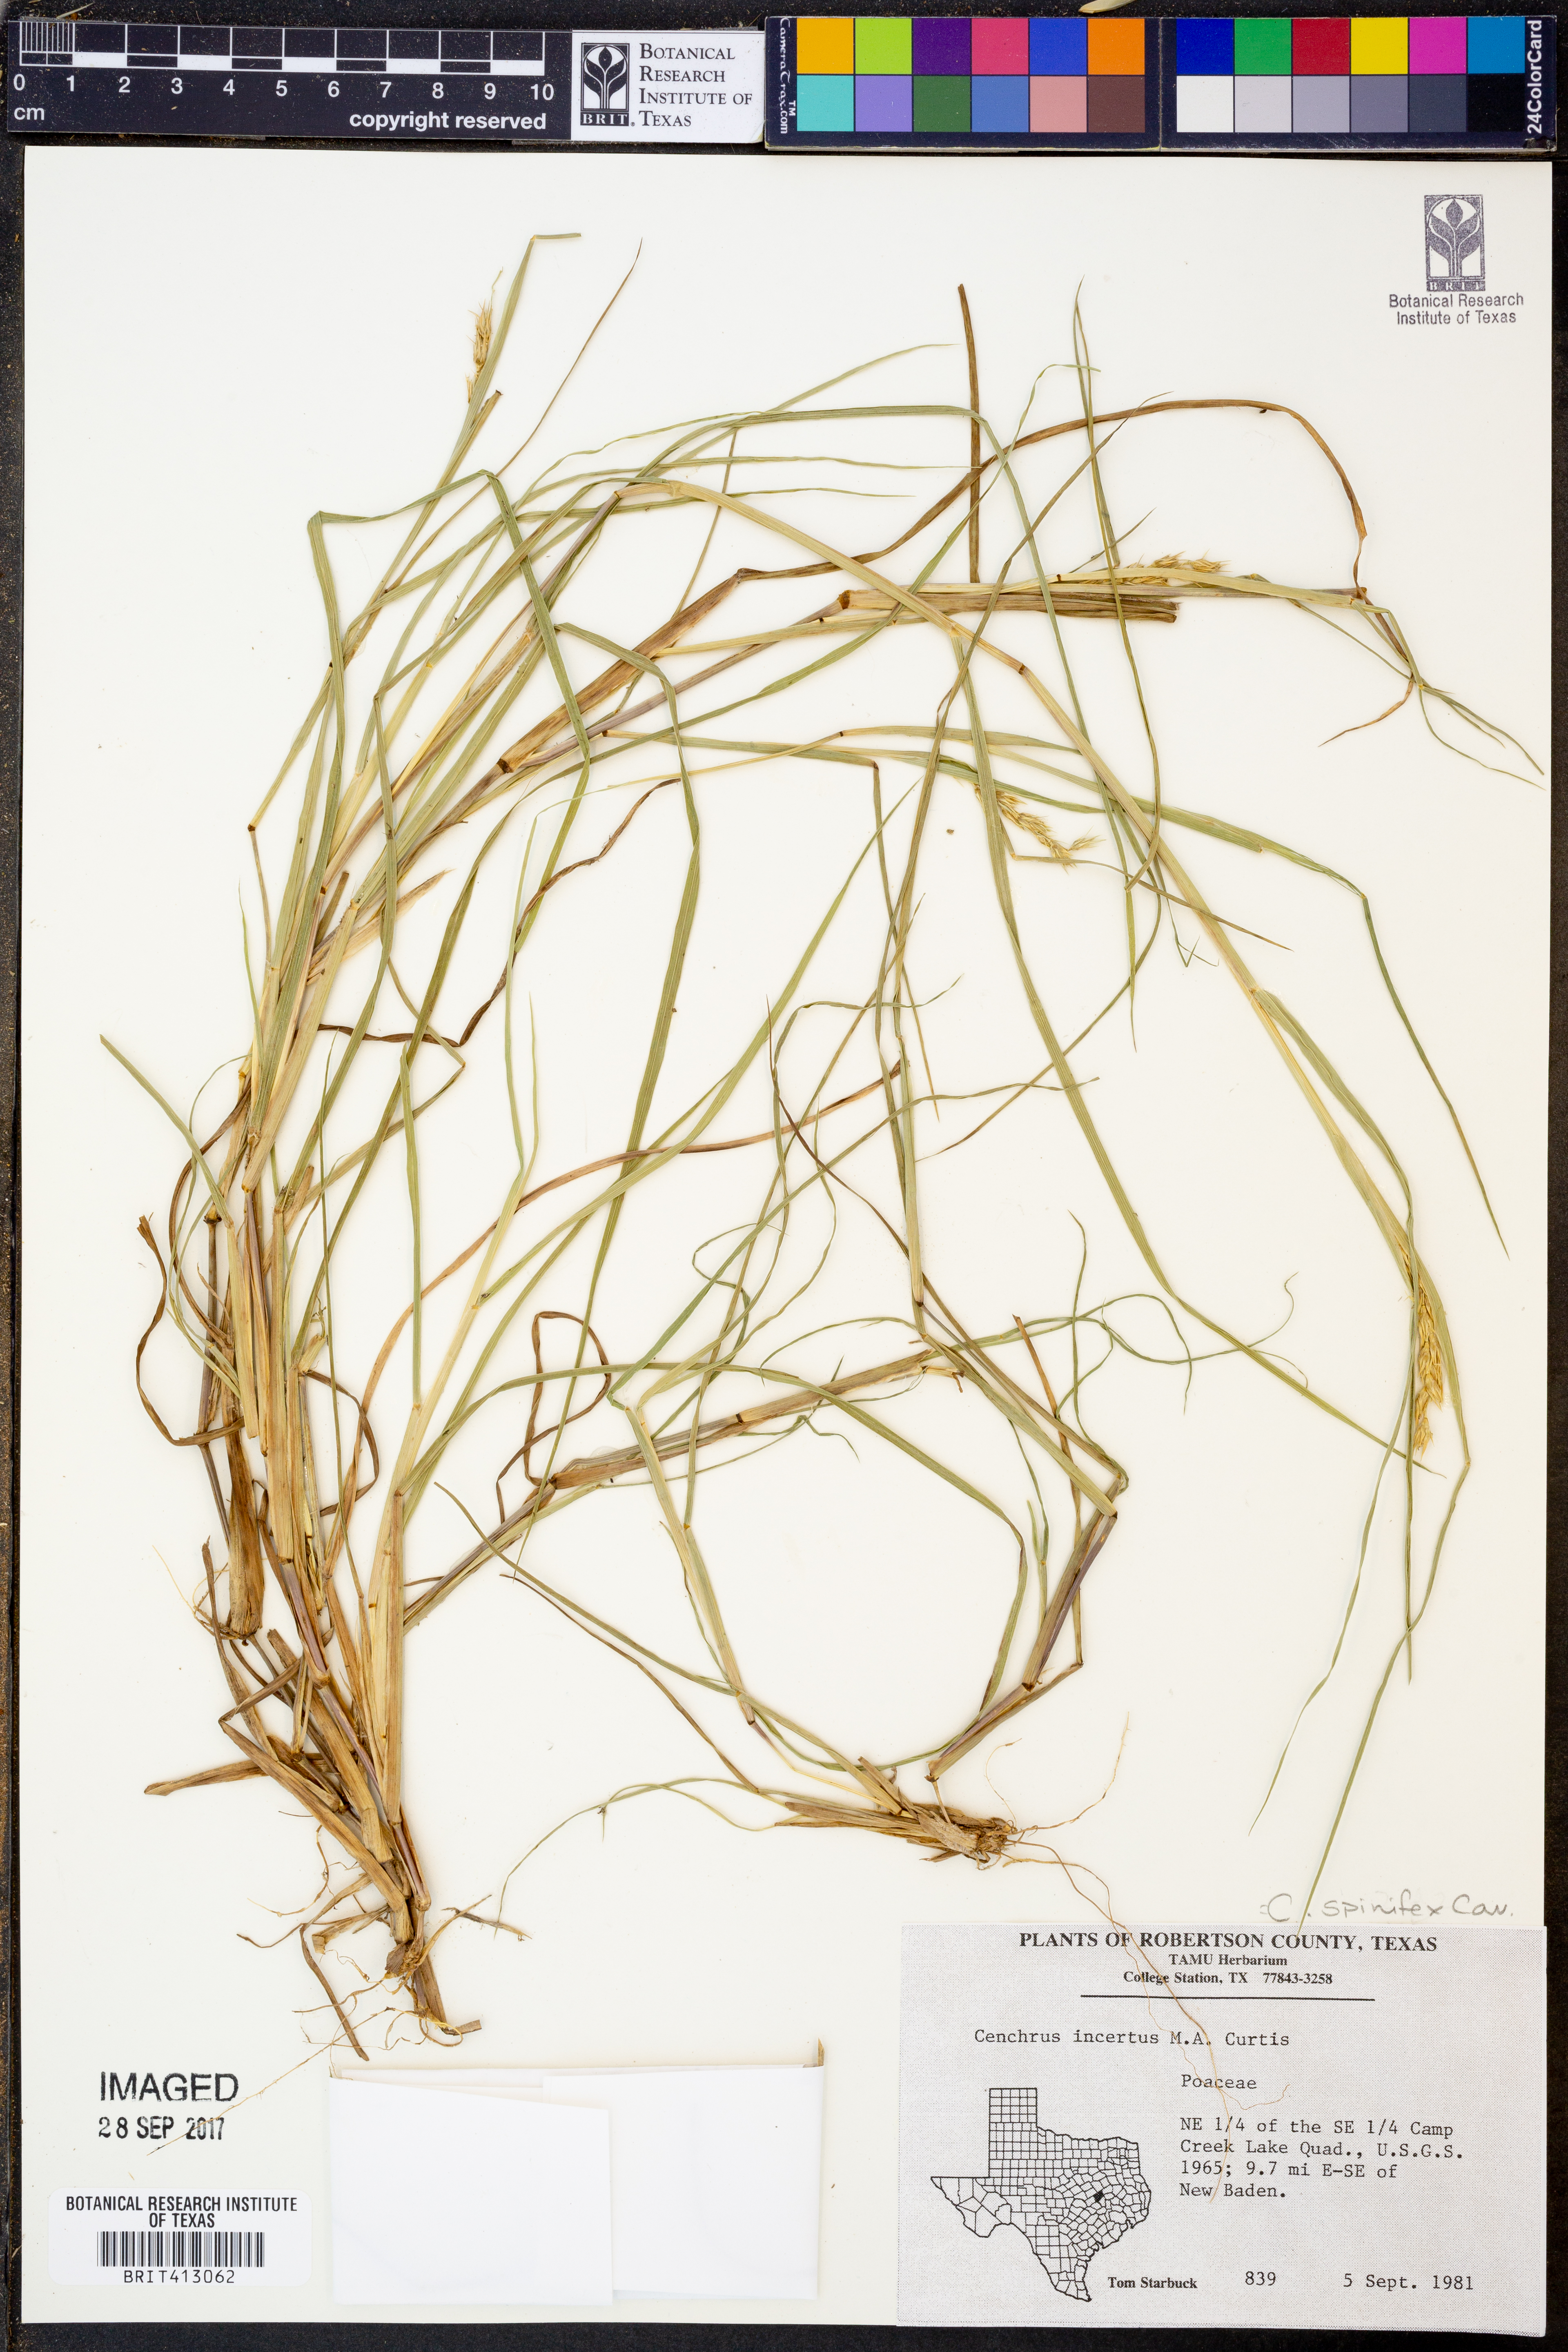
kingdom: Plantae
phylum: Tracheophyta
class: Liliopsida
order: Poales
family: Poaceae
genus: Cenchrus
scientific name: Cenchrus spinifex
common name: Coast sandbur
